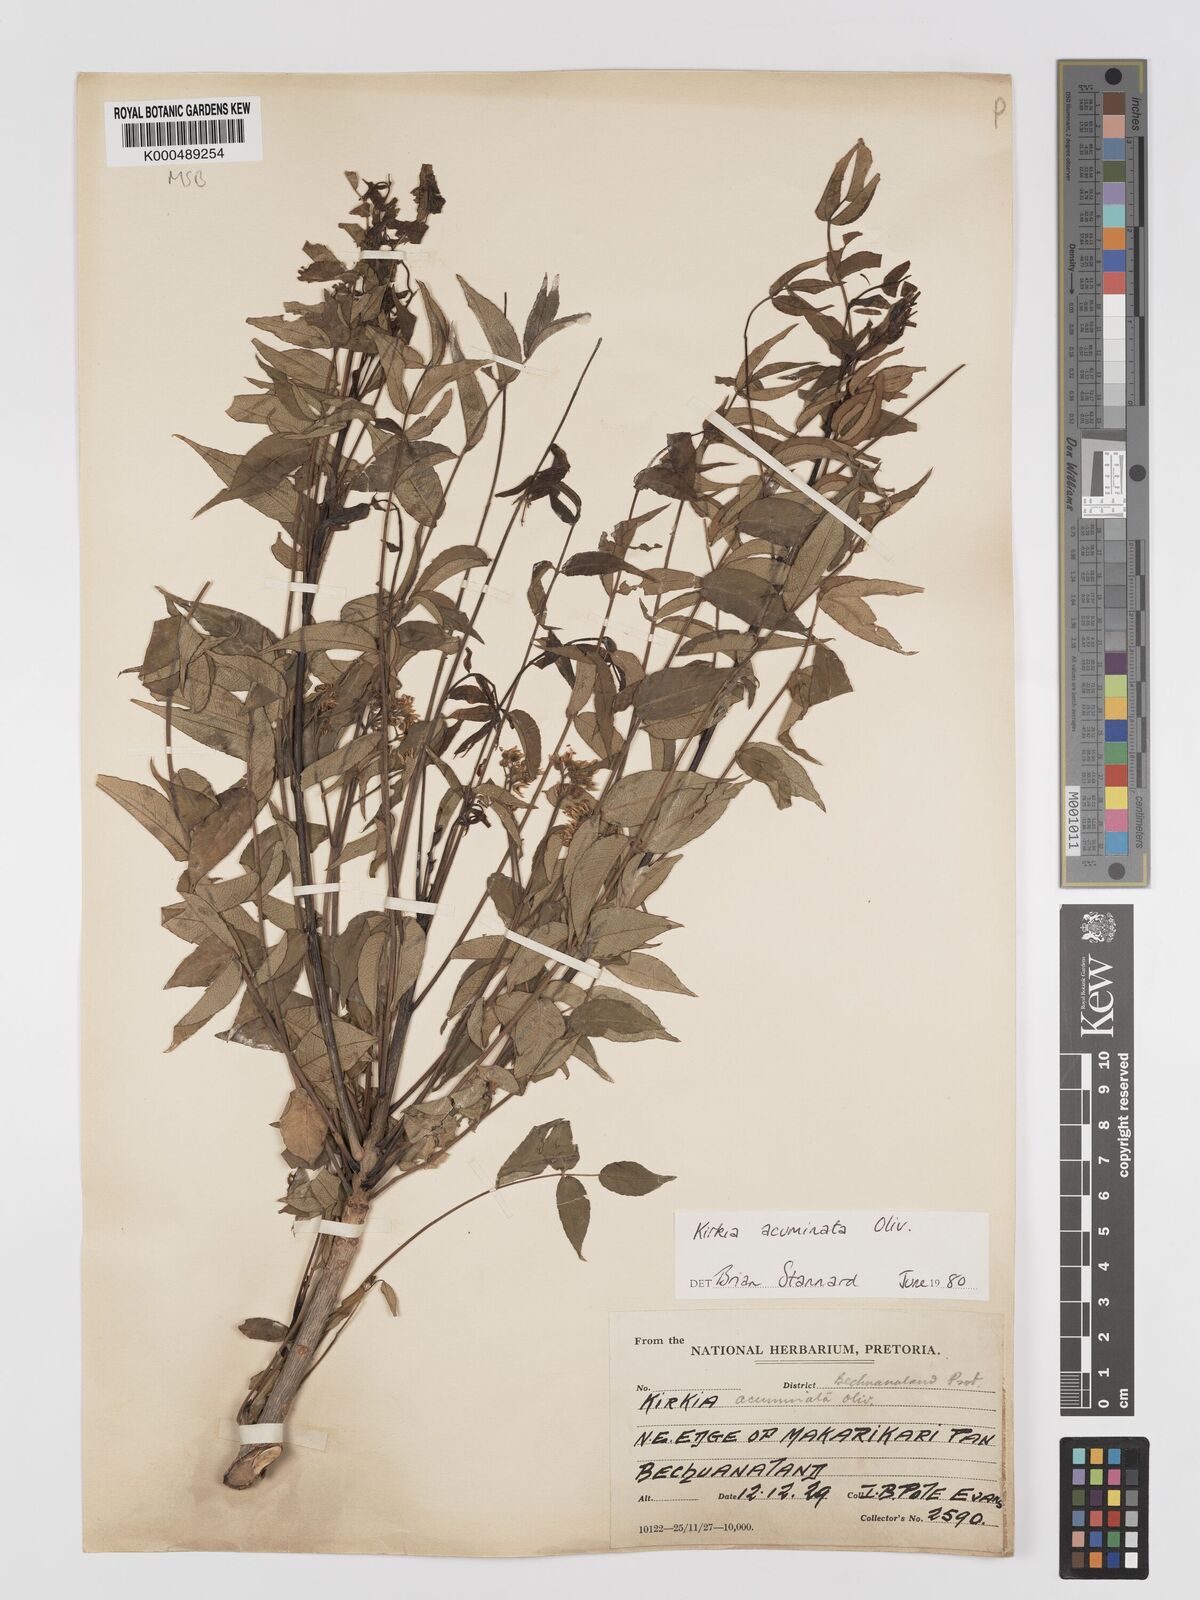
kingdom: Plantae
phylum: Tracheophyta
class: Magnoliopsida
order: Sapindales
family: Kirkiaceae
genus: Kirkia
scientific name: Kirkia acuminata
